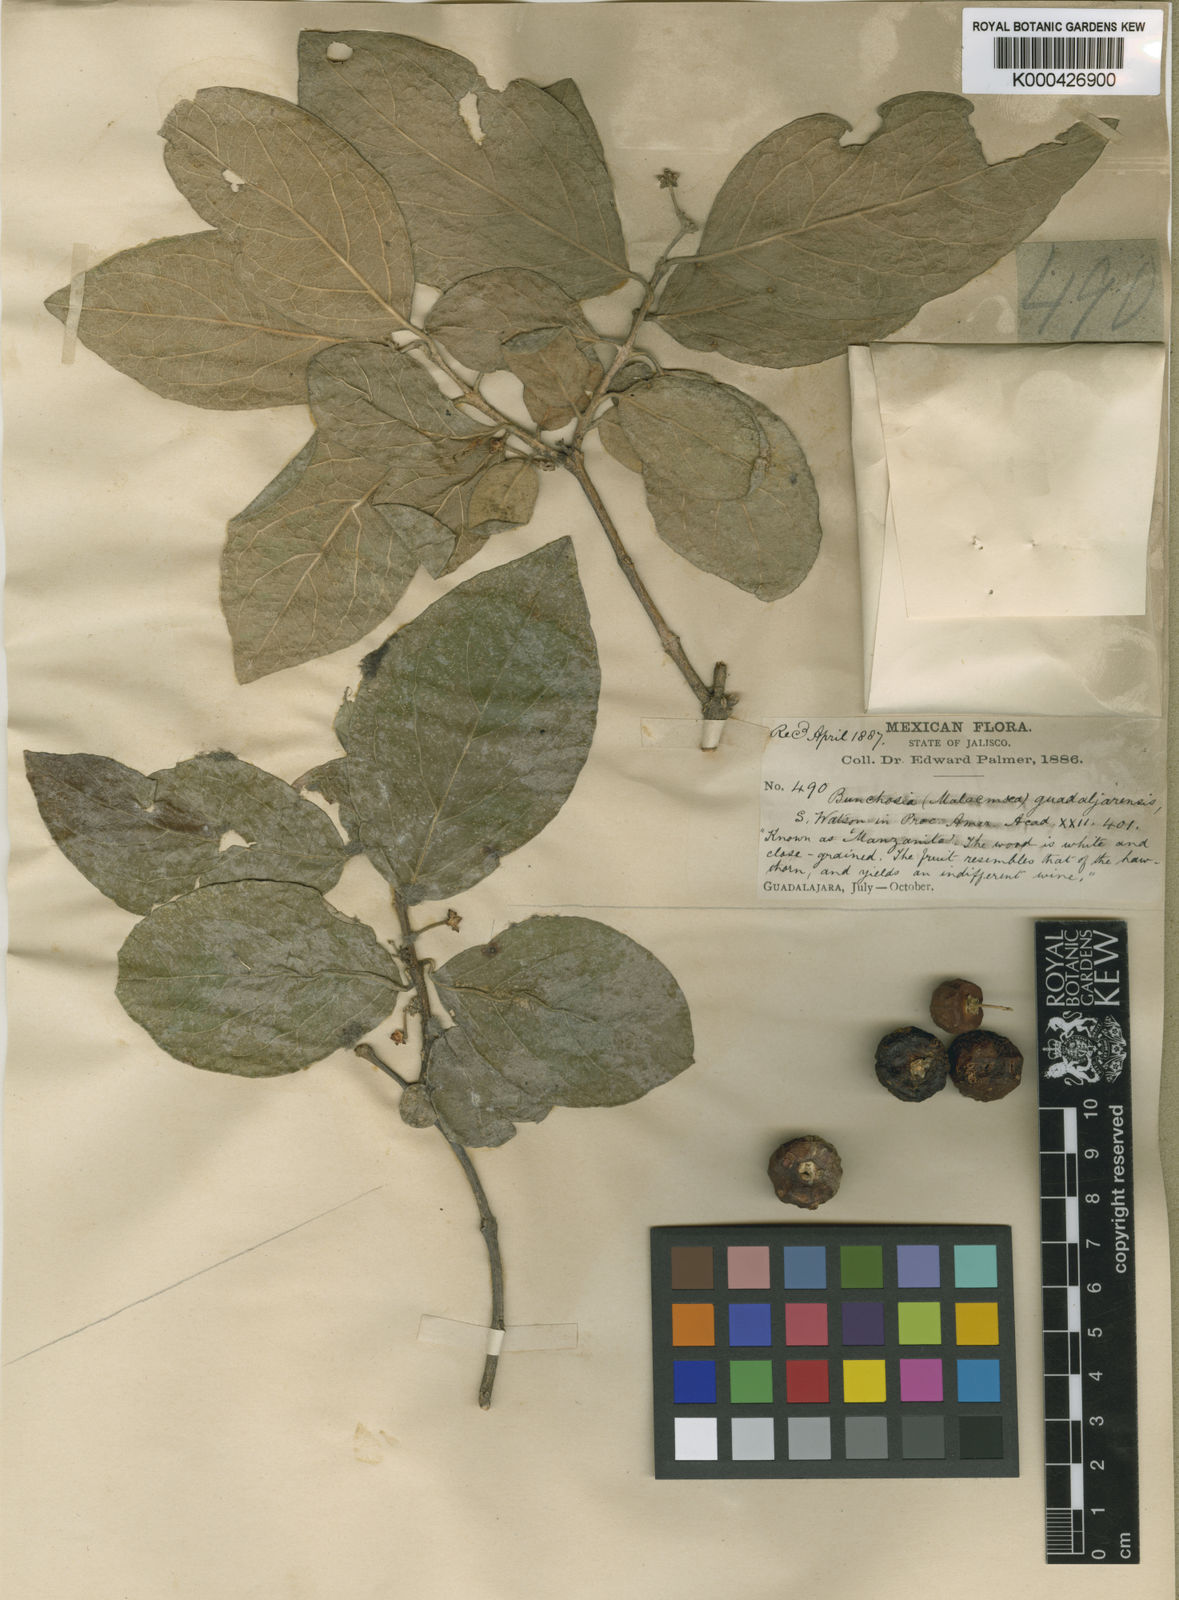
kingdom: Plantae
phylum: Tracheophyta
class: Magnoliopsida
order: Malpighiales
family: Malpighiaceae
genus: Malpighia
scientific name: Malpighia mexicana
